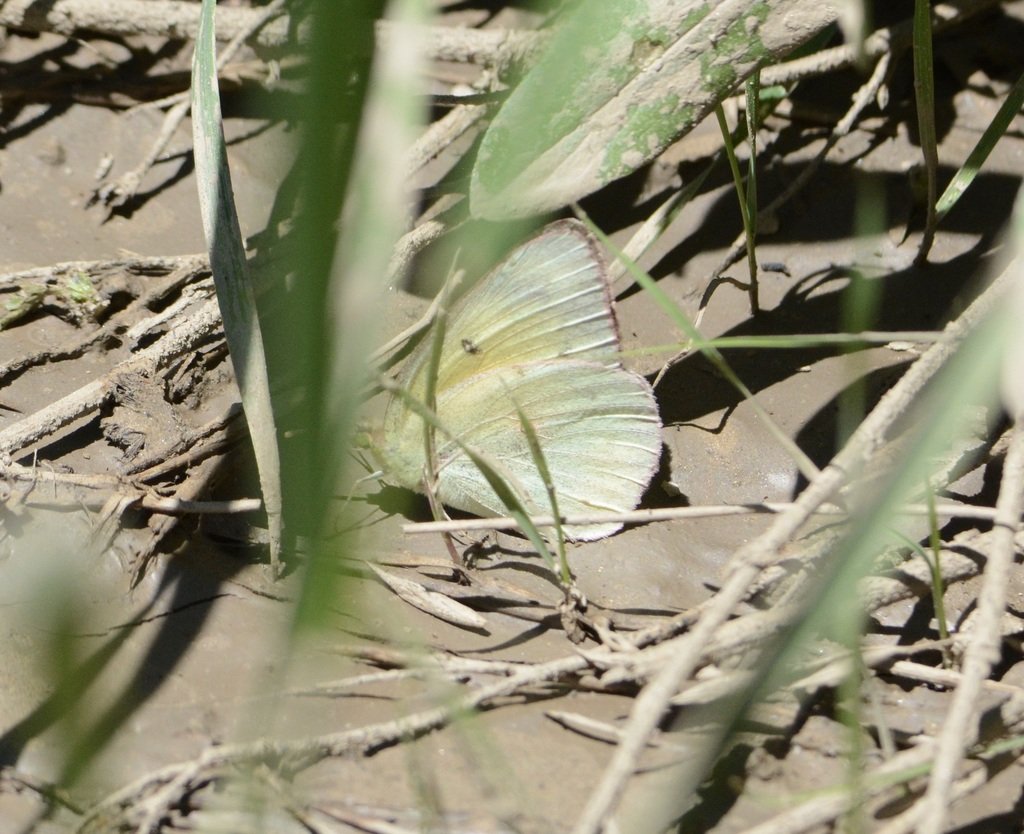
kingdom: Animalia
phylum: Arthropoda
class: Insecta
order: Lepidoptera
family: Pieridae
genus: Colias
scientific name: Colias philodice
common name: Clouded Sulphur
